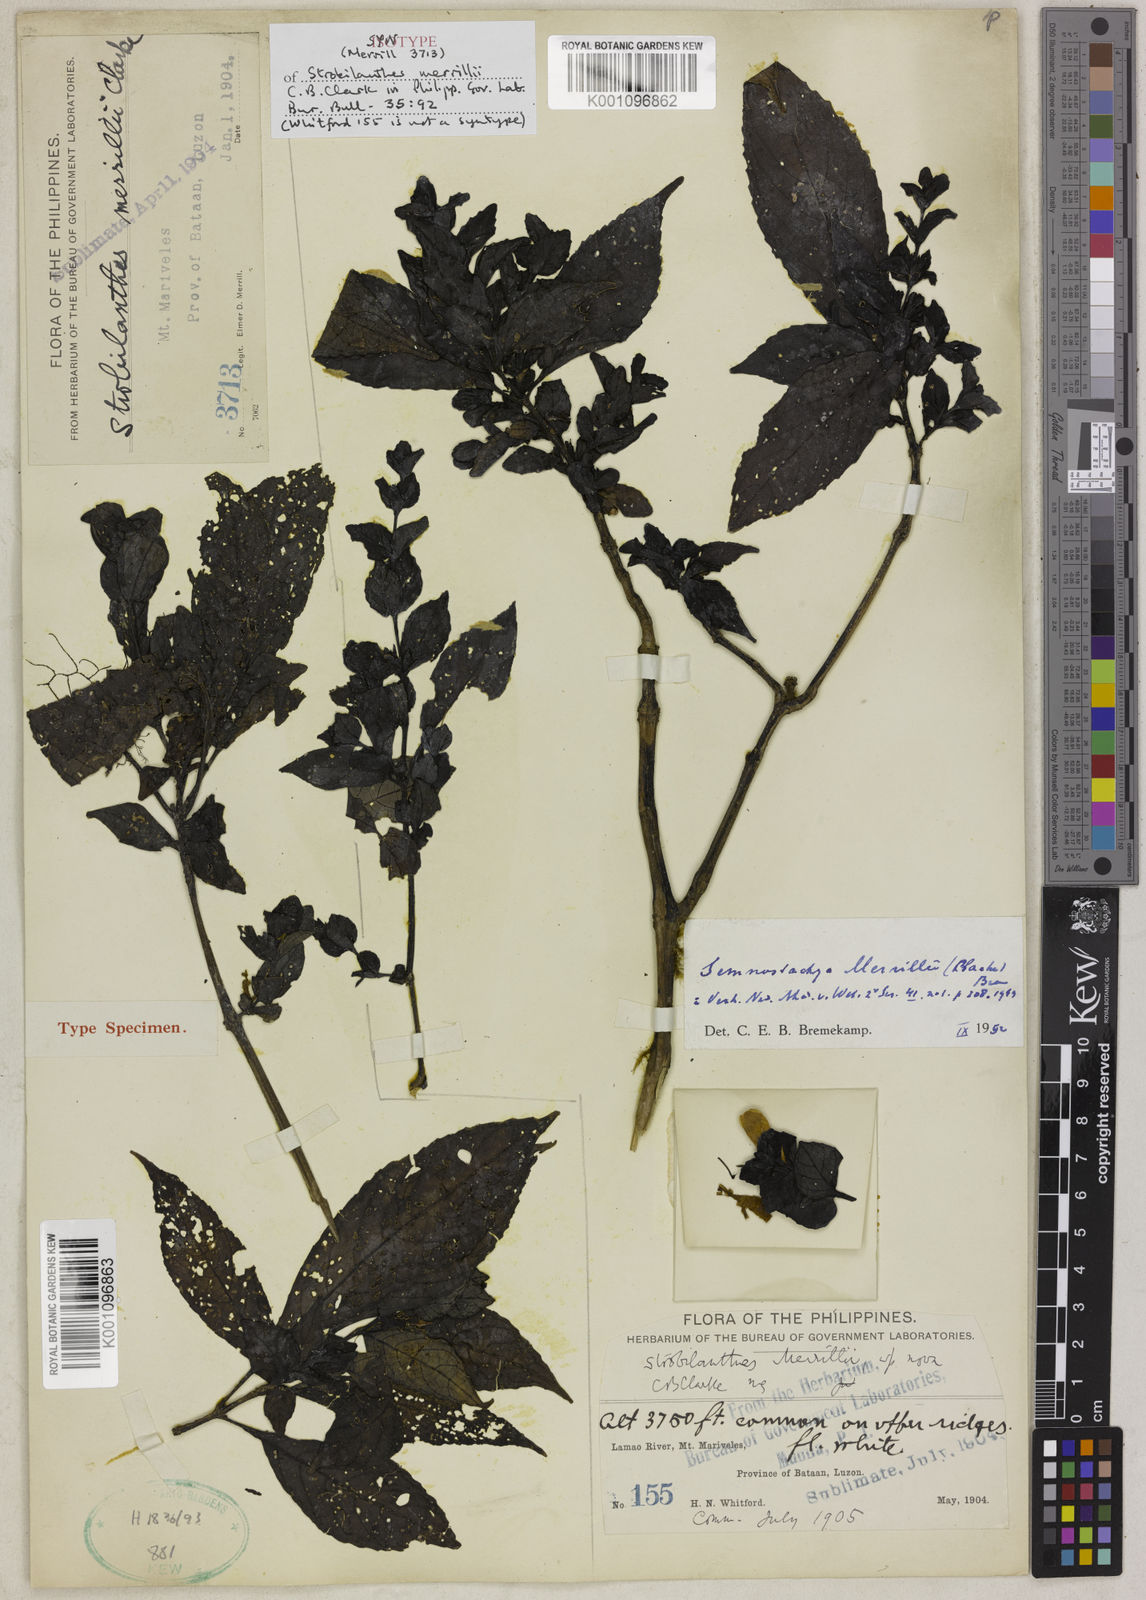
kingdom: Plantae
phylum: Tracheophyta
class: Magnoliopsida
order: Lamiales
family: Acanthaceae
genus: Strobilanthes
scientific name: Strobilanthes merrillii
